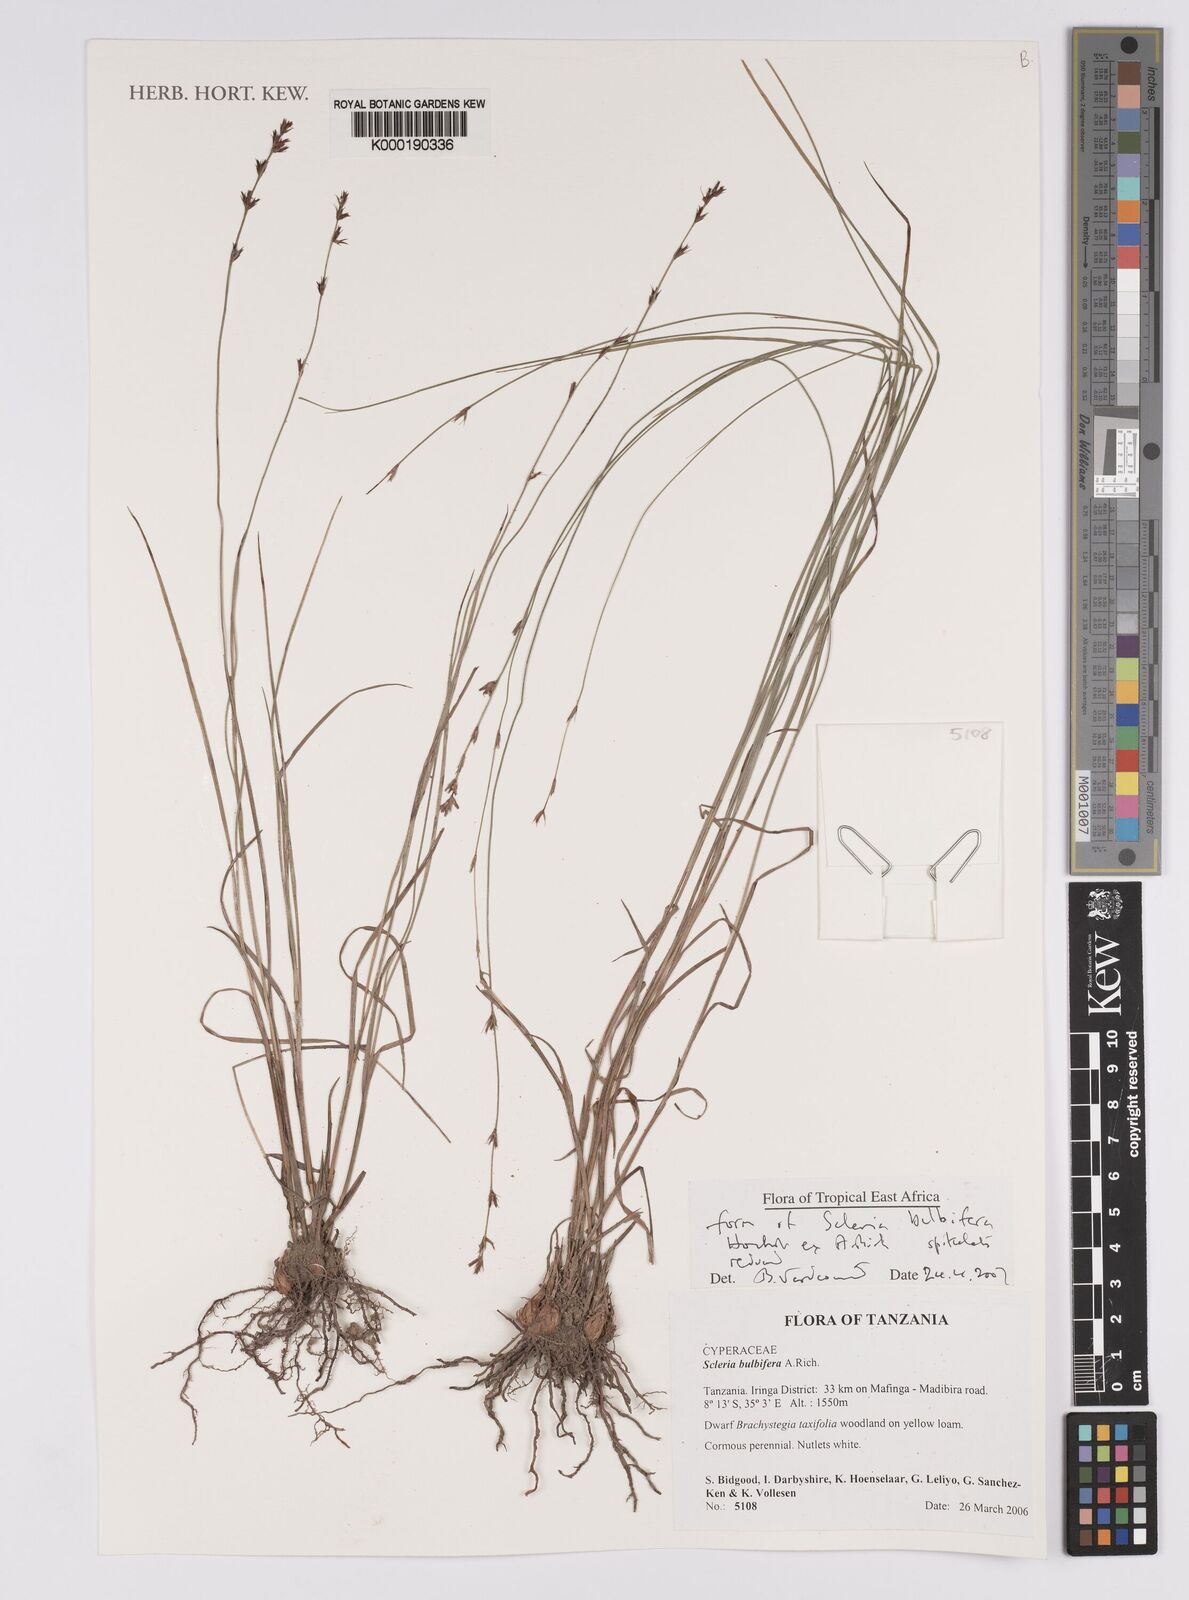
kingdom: Plantae
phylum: Tracheophyta
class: Liliopsida
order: Poales
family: Cyperaceae
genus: Scleria
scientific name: Scleria bulbifera
